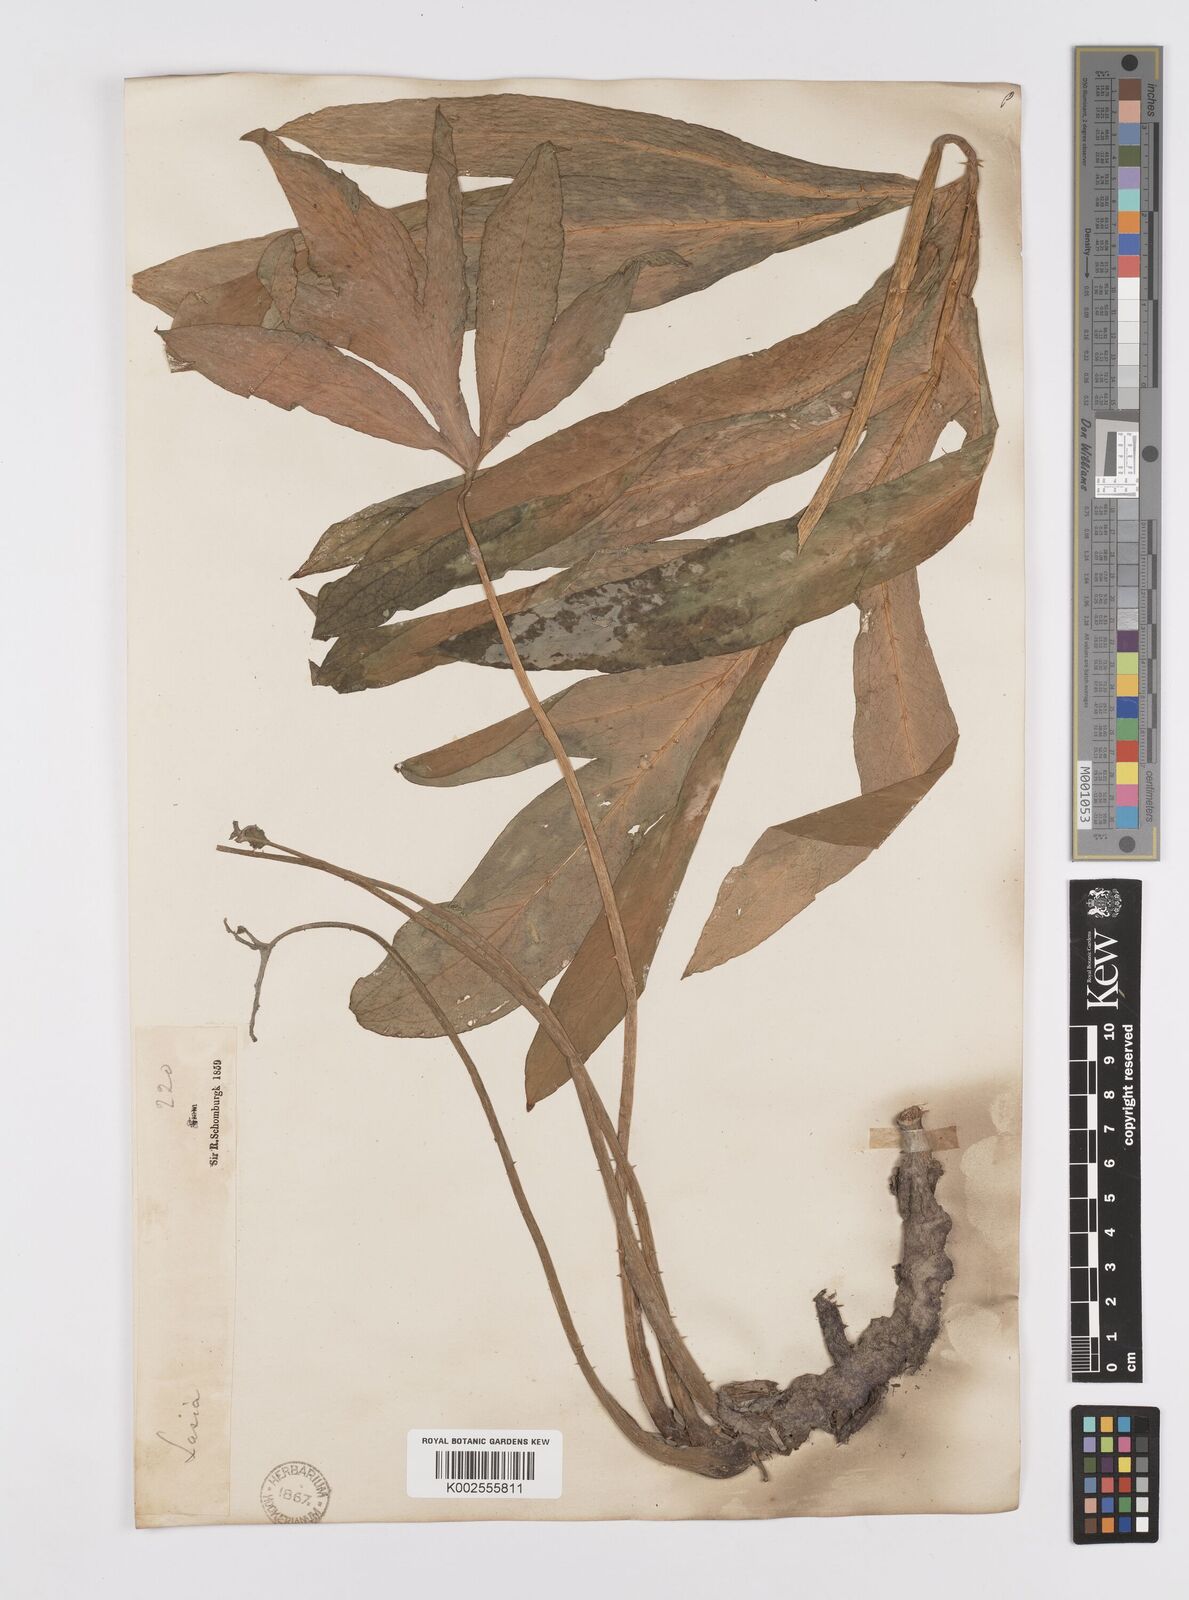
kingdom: Plantae
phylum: Tracheophyta
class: Liliopsida
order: Alismatales
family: Araceae
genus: Lasia
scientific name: Lasia spinosa
